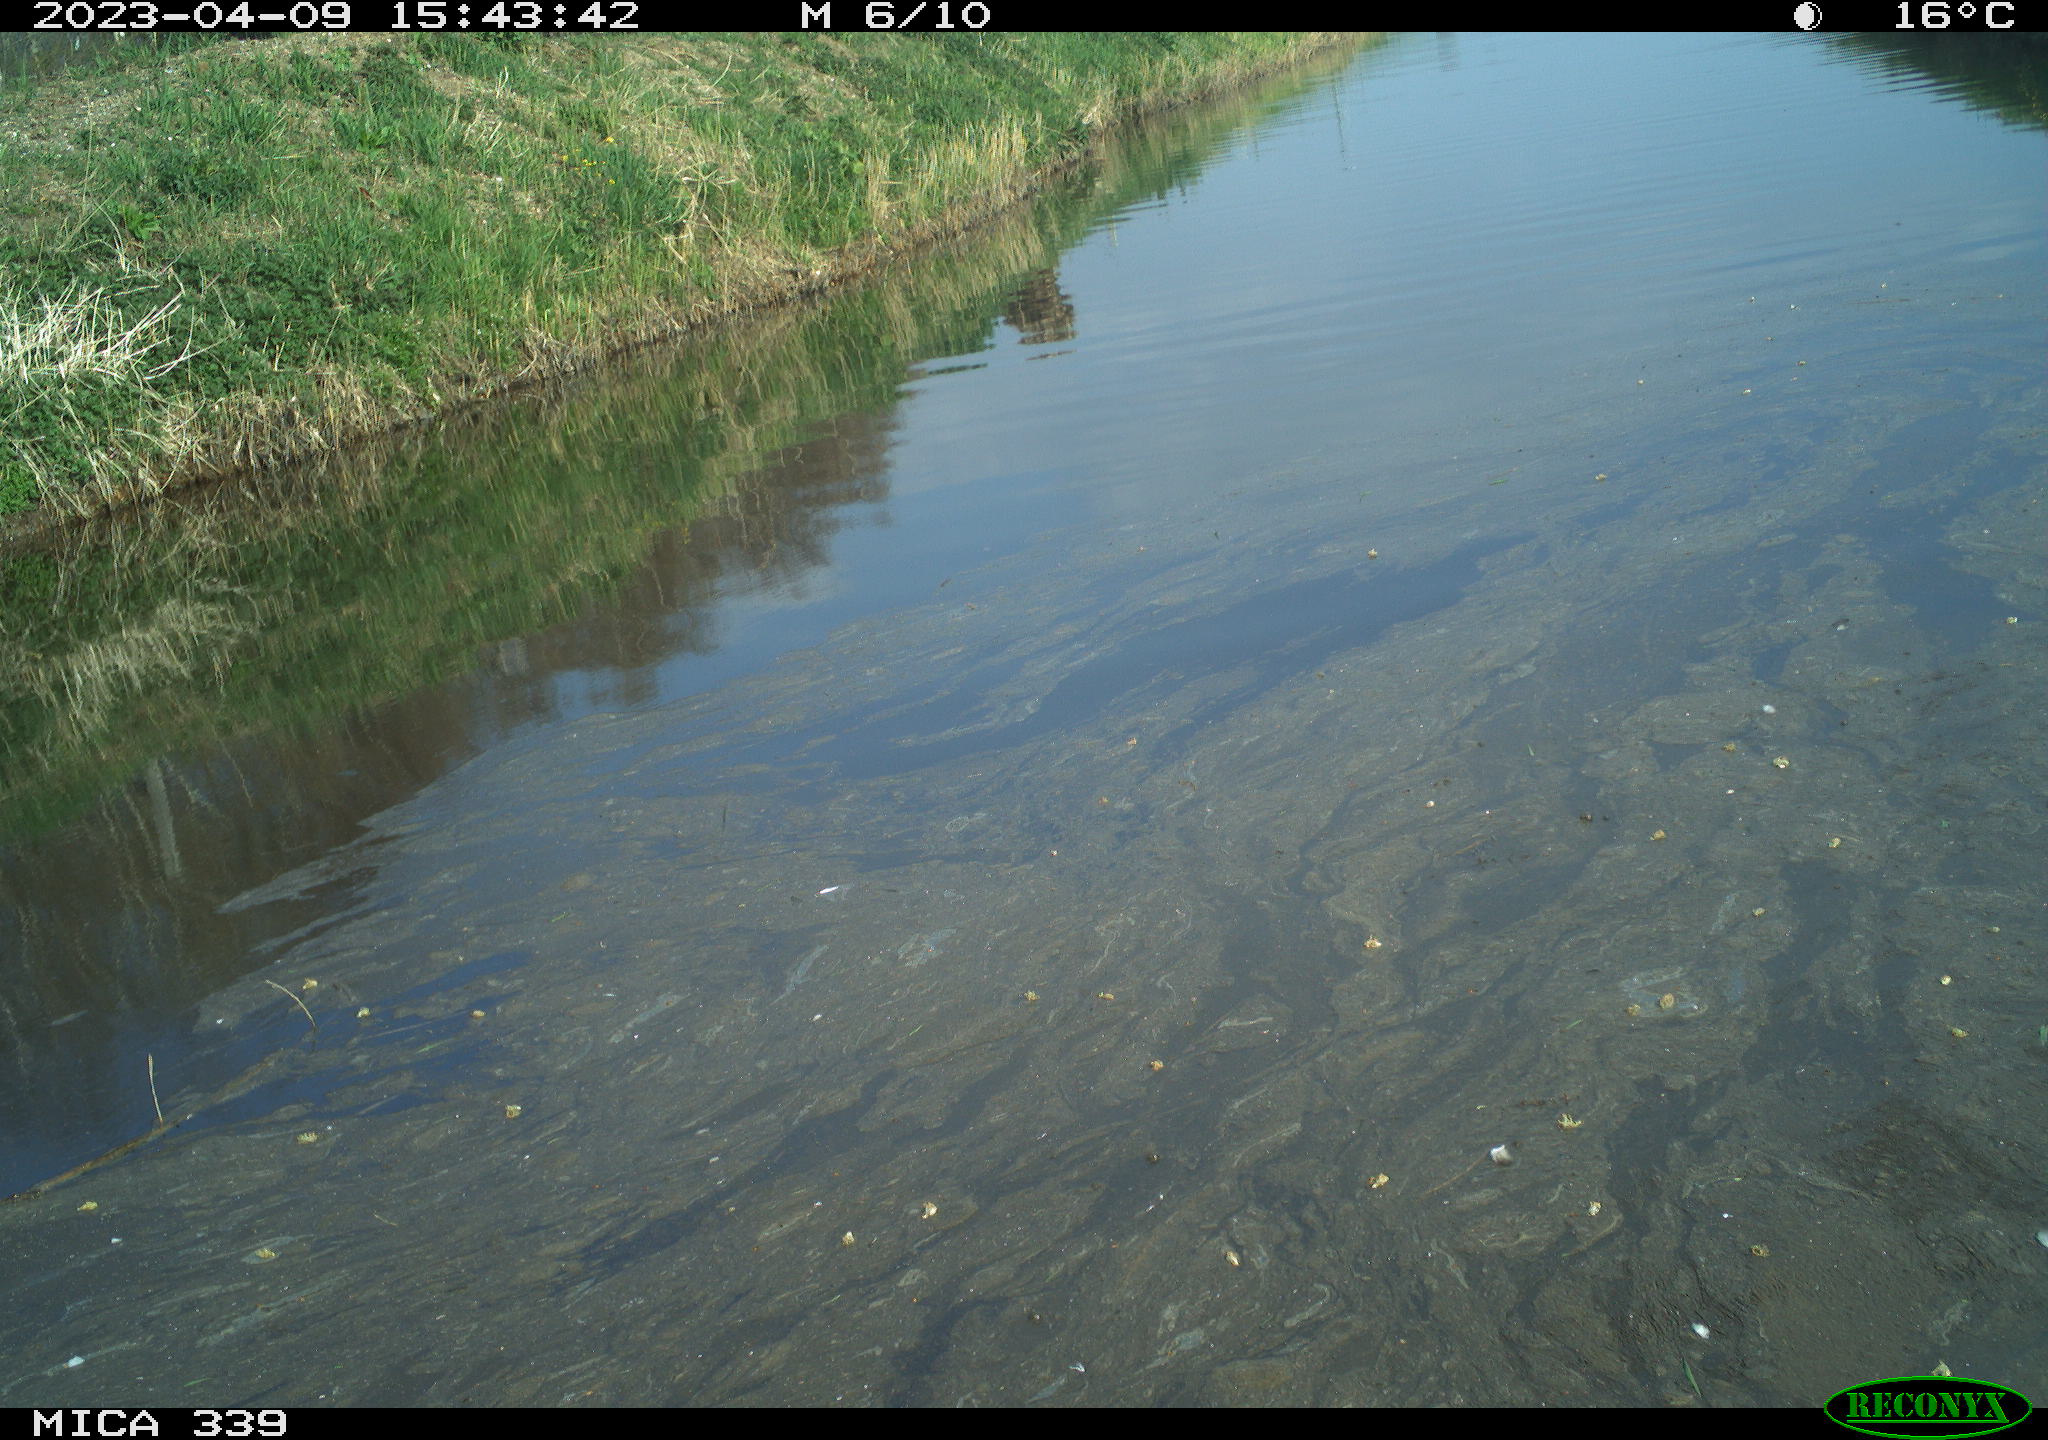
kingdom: Animalia
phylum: Chordata
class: Aves
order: Pelecaniformes
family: Ardeidae
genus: Ardea
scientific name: Ardea cinerea
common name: Grey heron
